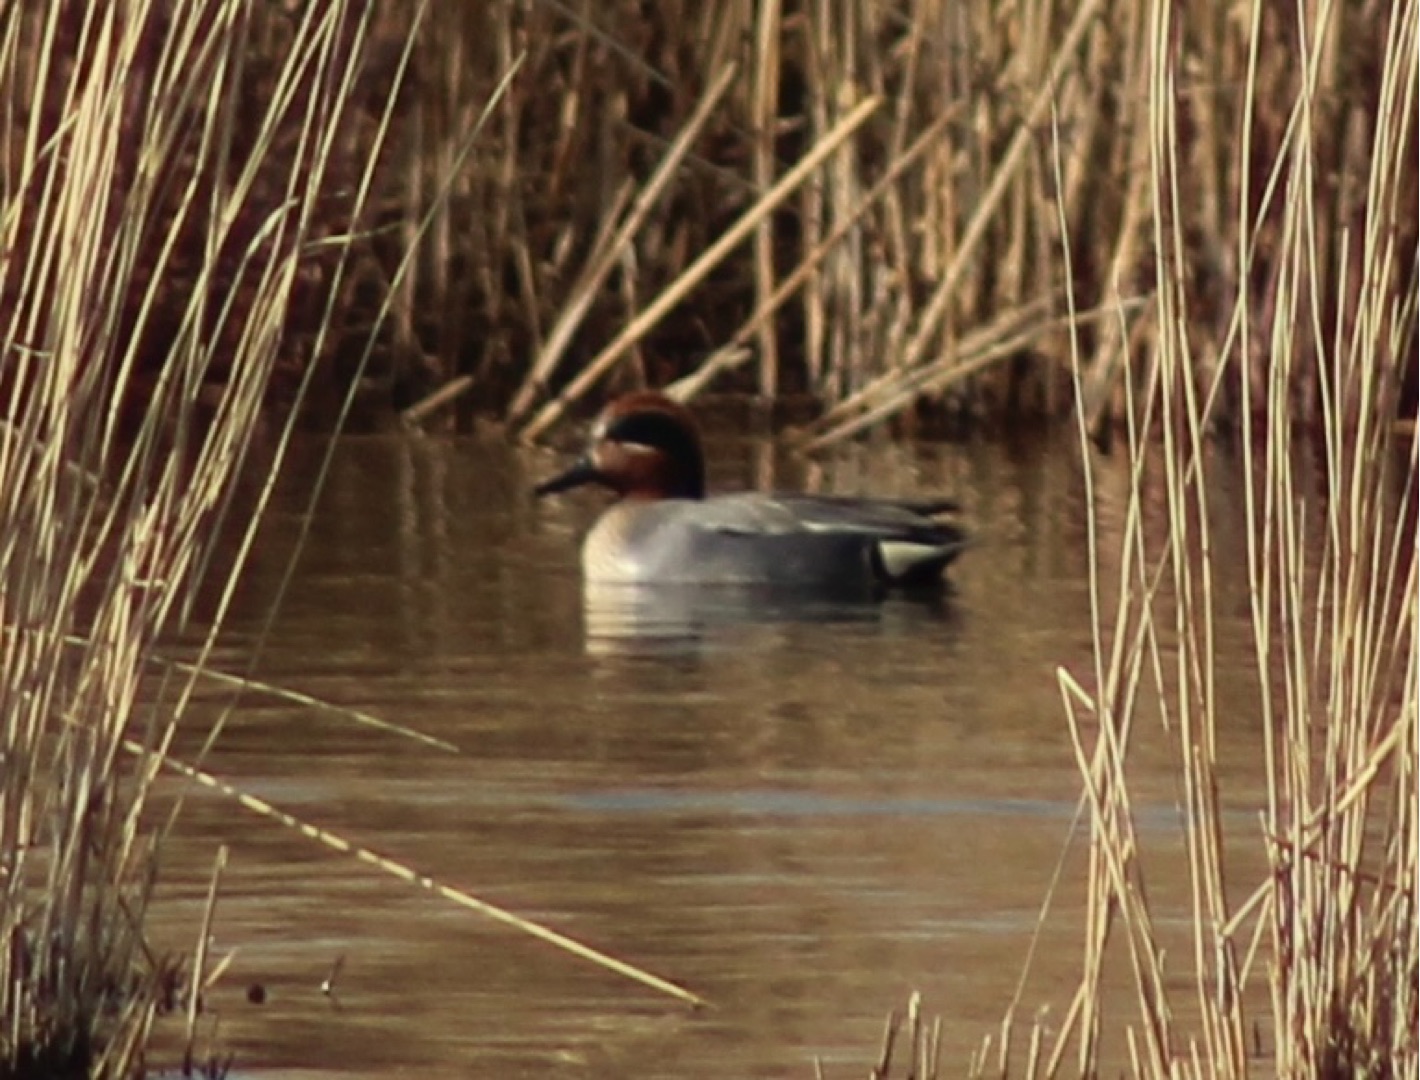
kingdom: Animalia
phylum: Chordata
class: Aves
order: Anseriformes
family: Anatidae
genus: Anas
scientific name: Anas crecca
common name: Krikand
